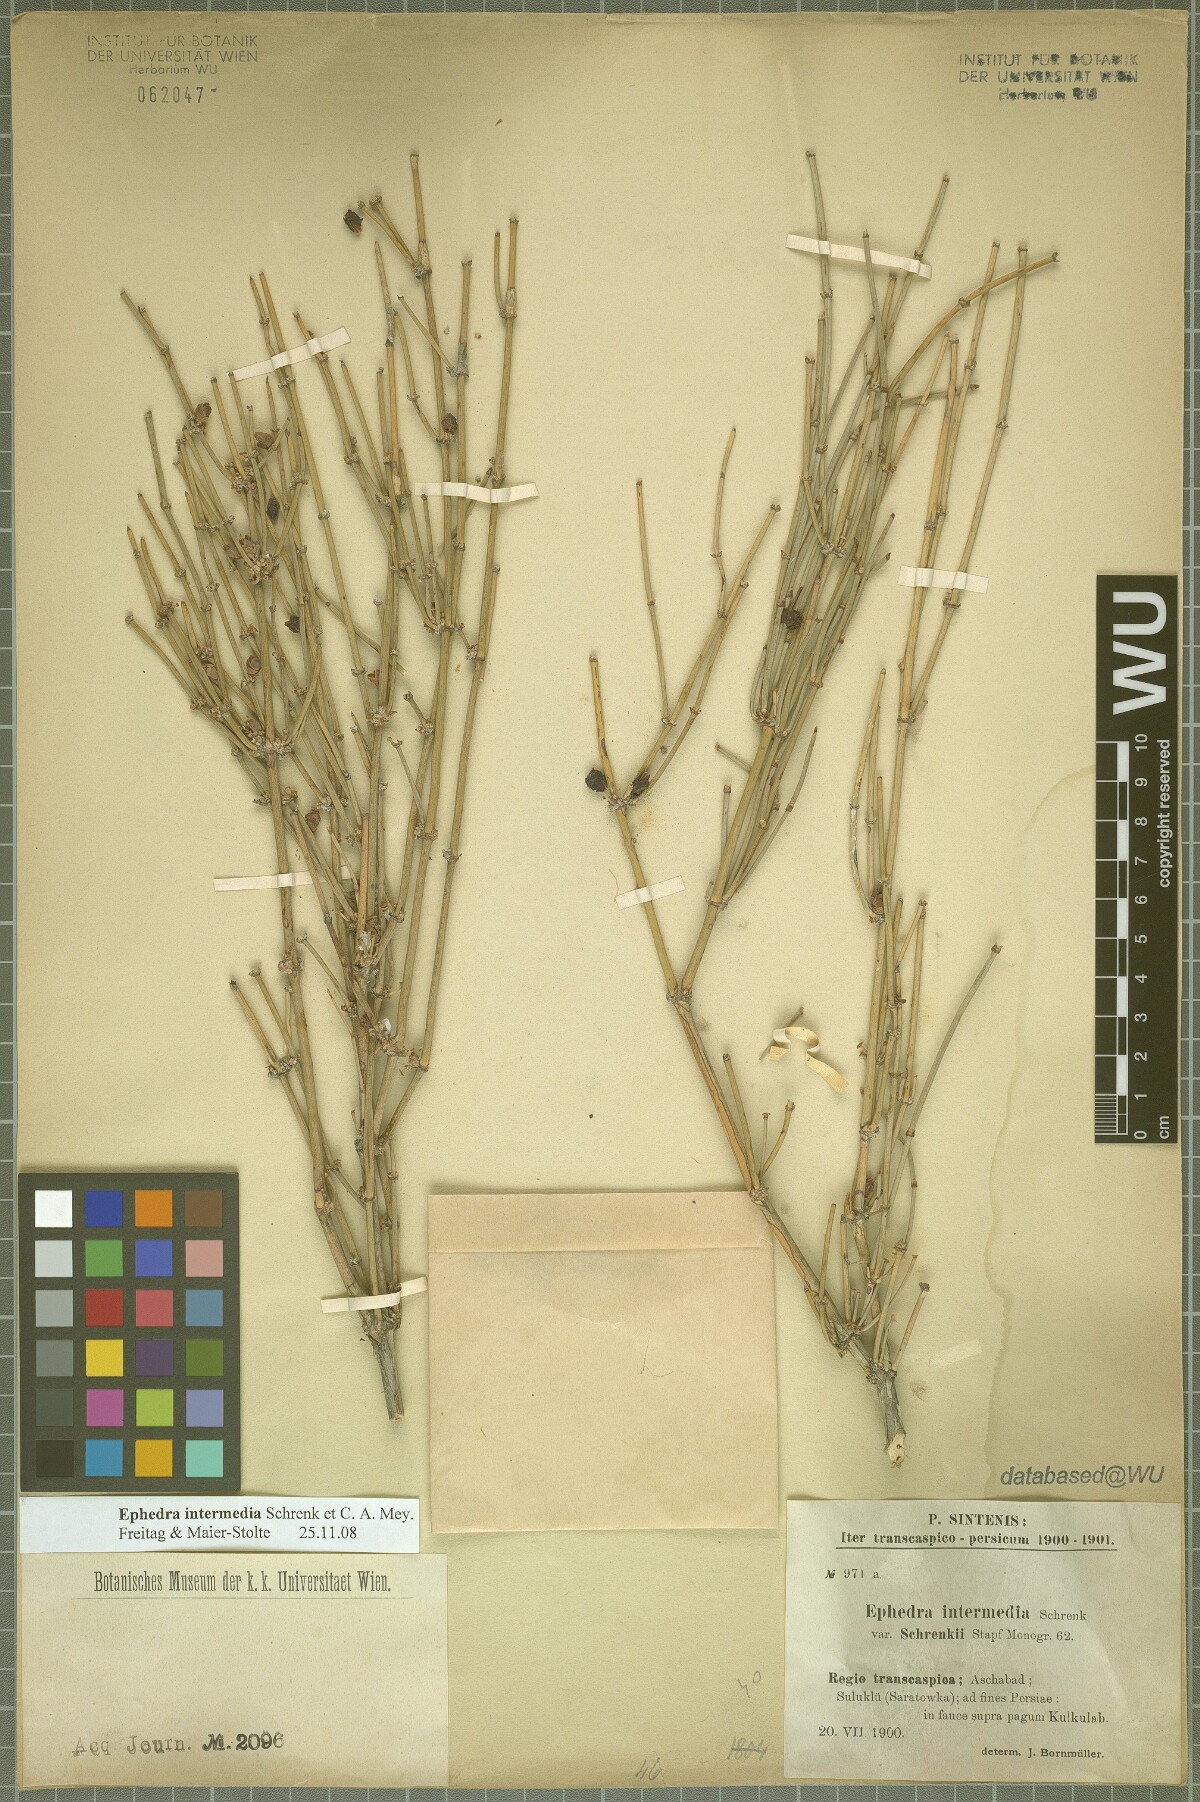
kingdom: Plantae
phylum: Tracheophyta
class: Gnetopsida
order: Ephedrales
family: Ephedraceae
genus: Ephedra
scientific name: Ephedra intermedia
